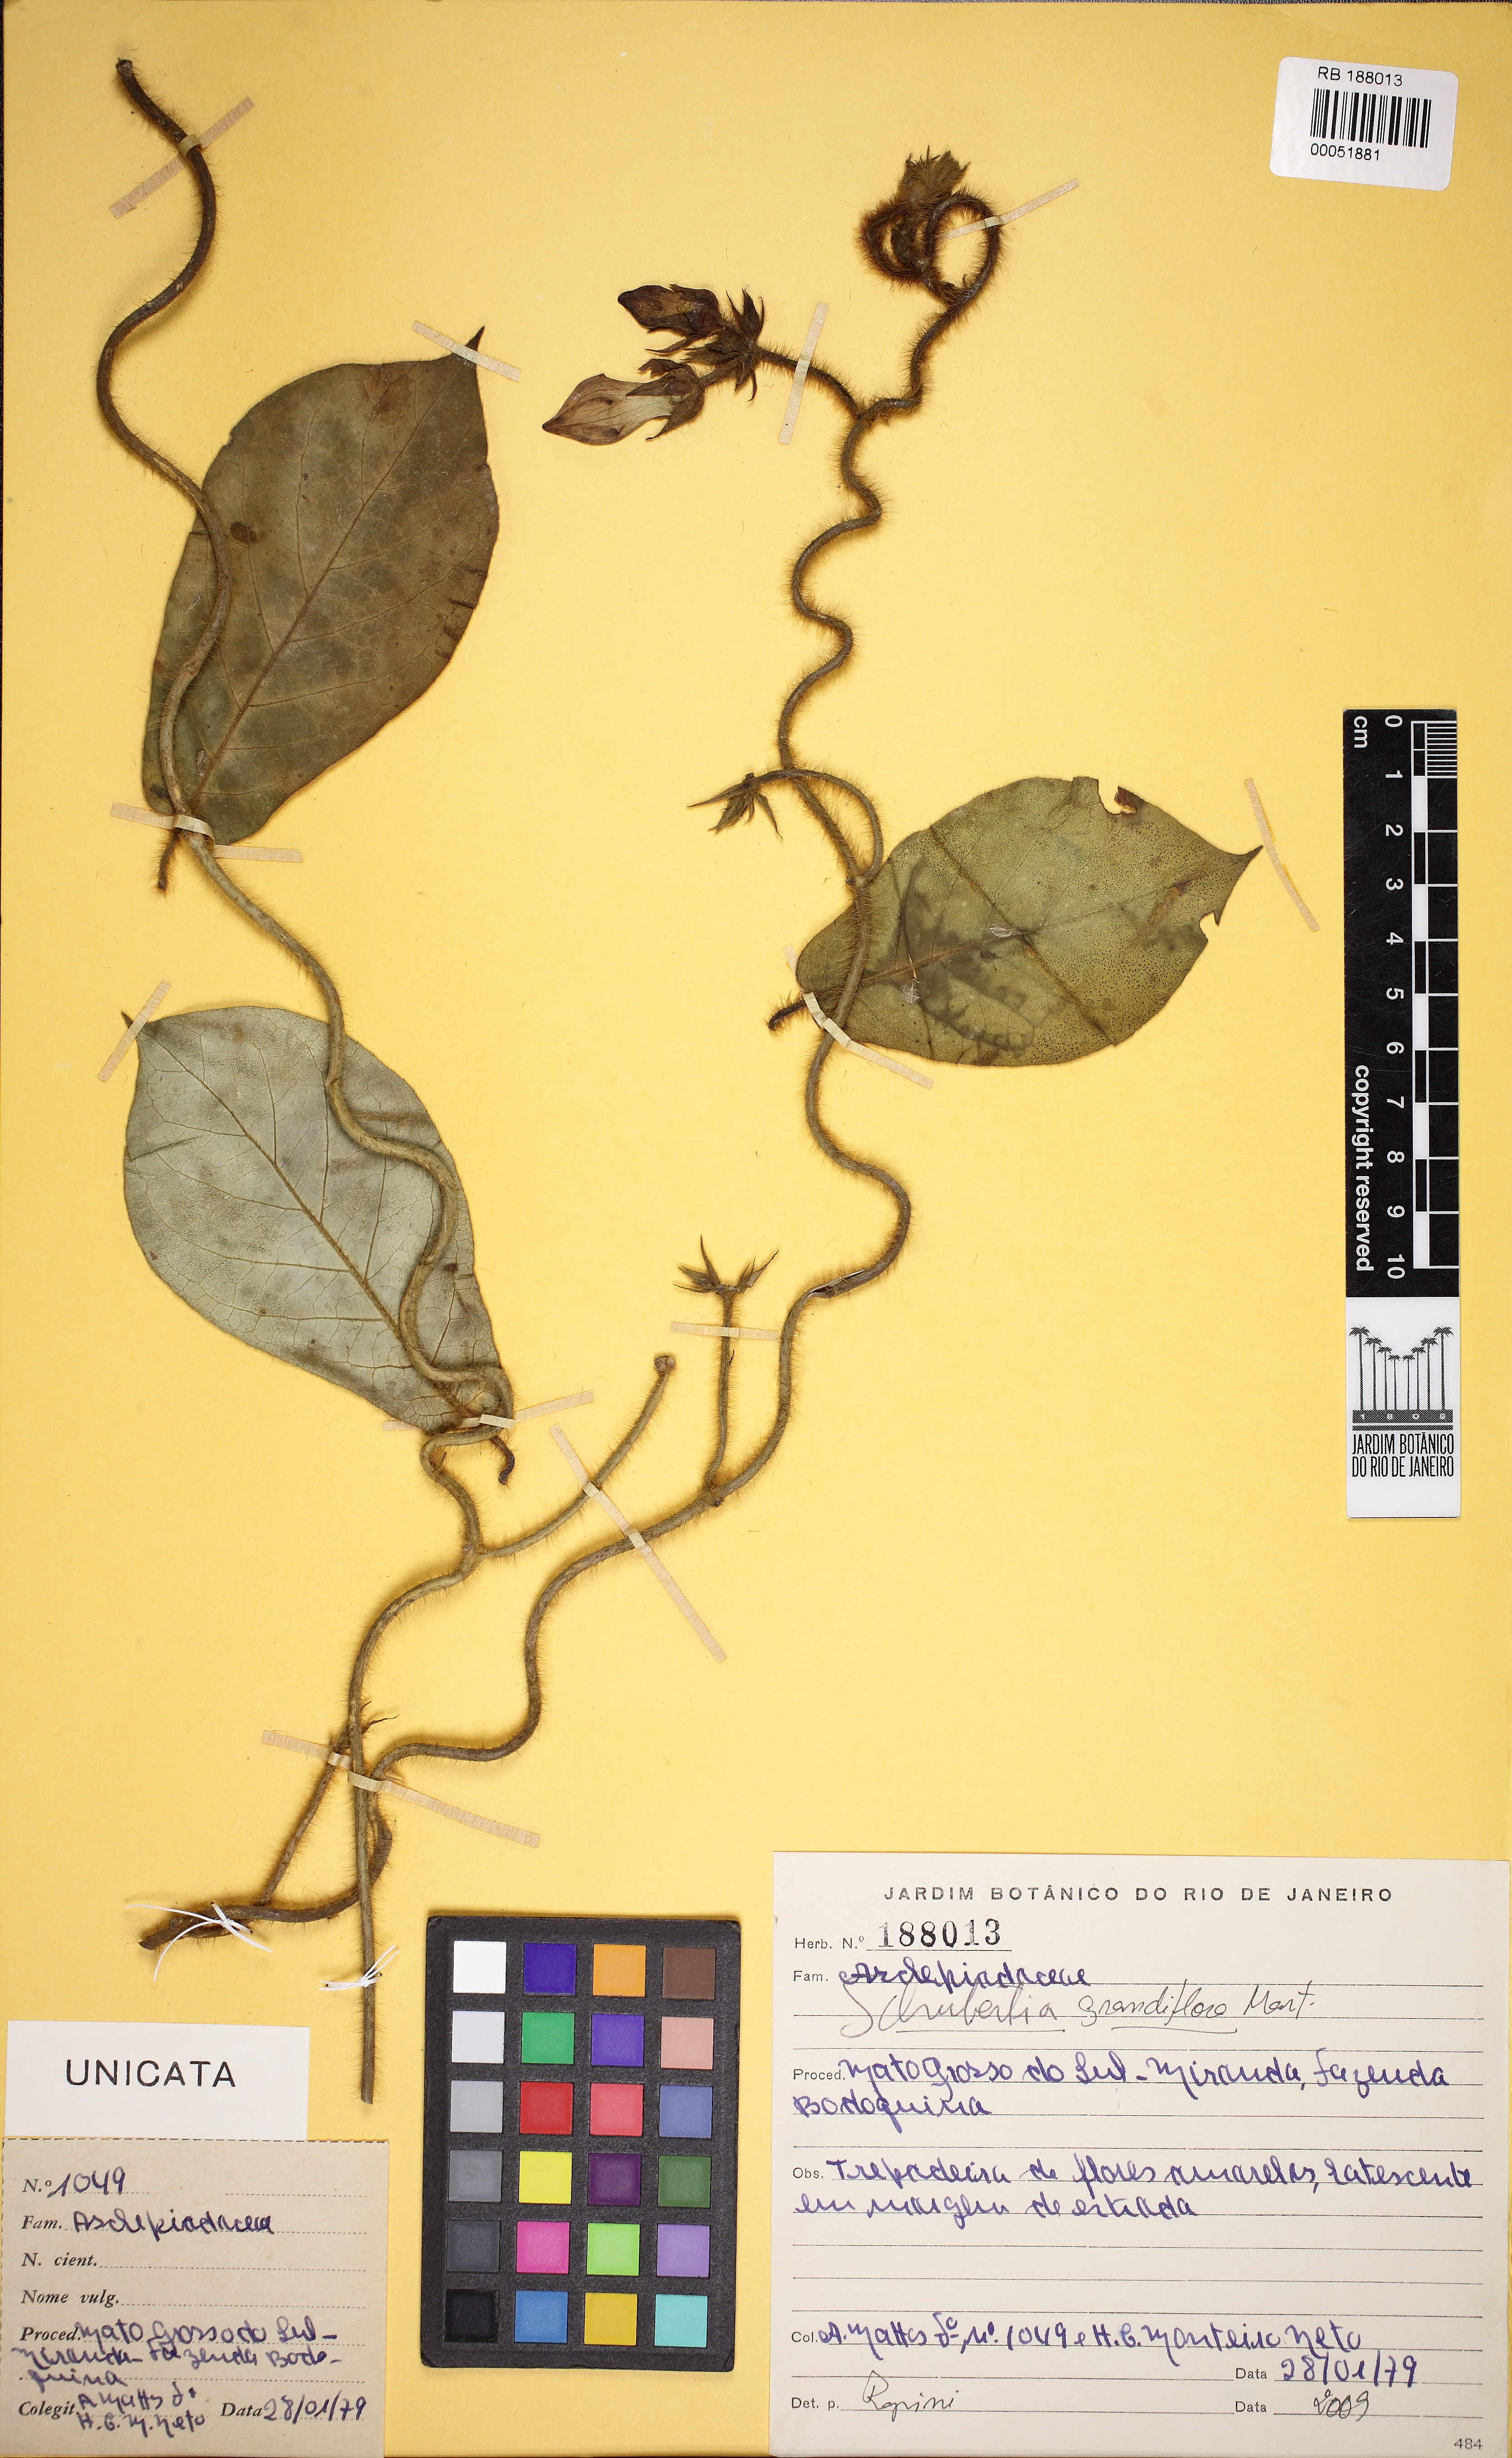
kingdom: Plantae
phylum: Tracheophyta
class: Magnoliopsida
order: Gentianales
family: Apocynaceae
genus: Macroscepis
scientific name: Macroscepis grandiflora
